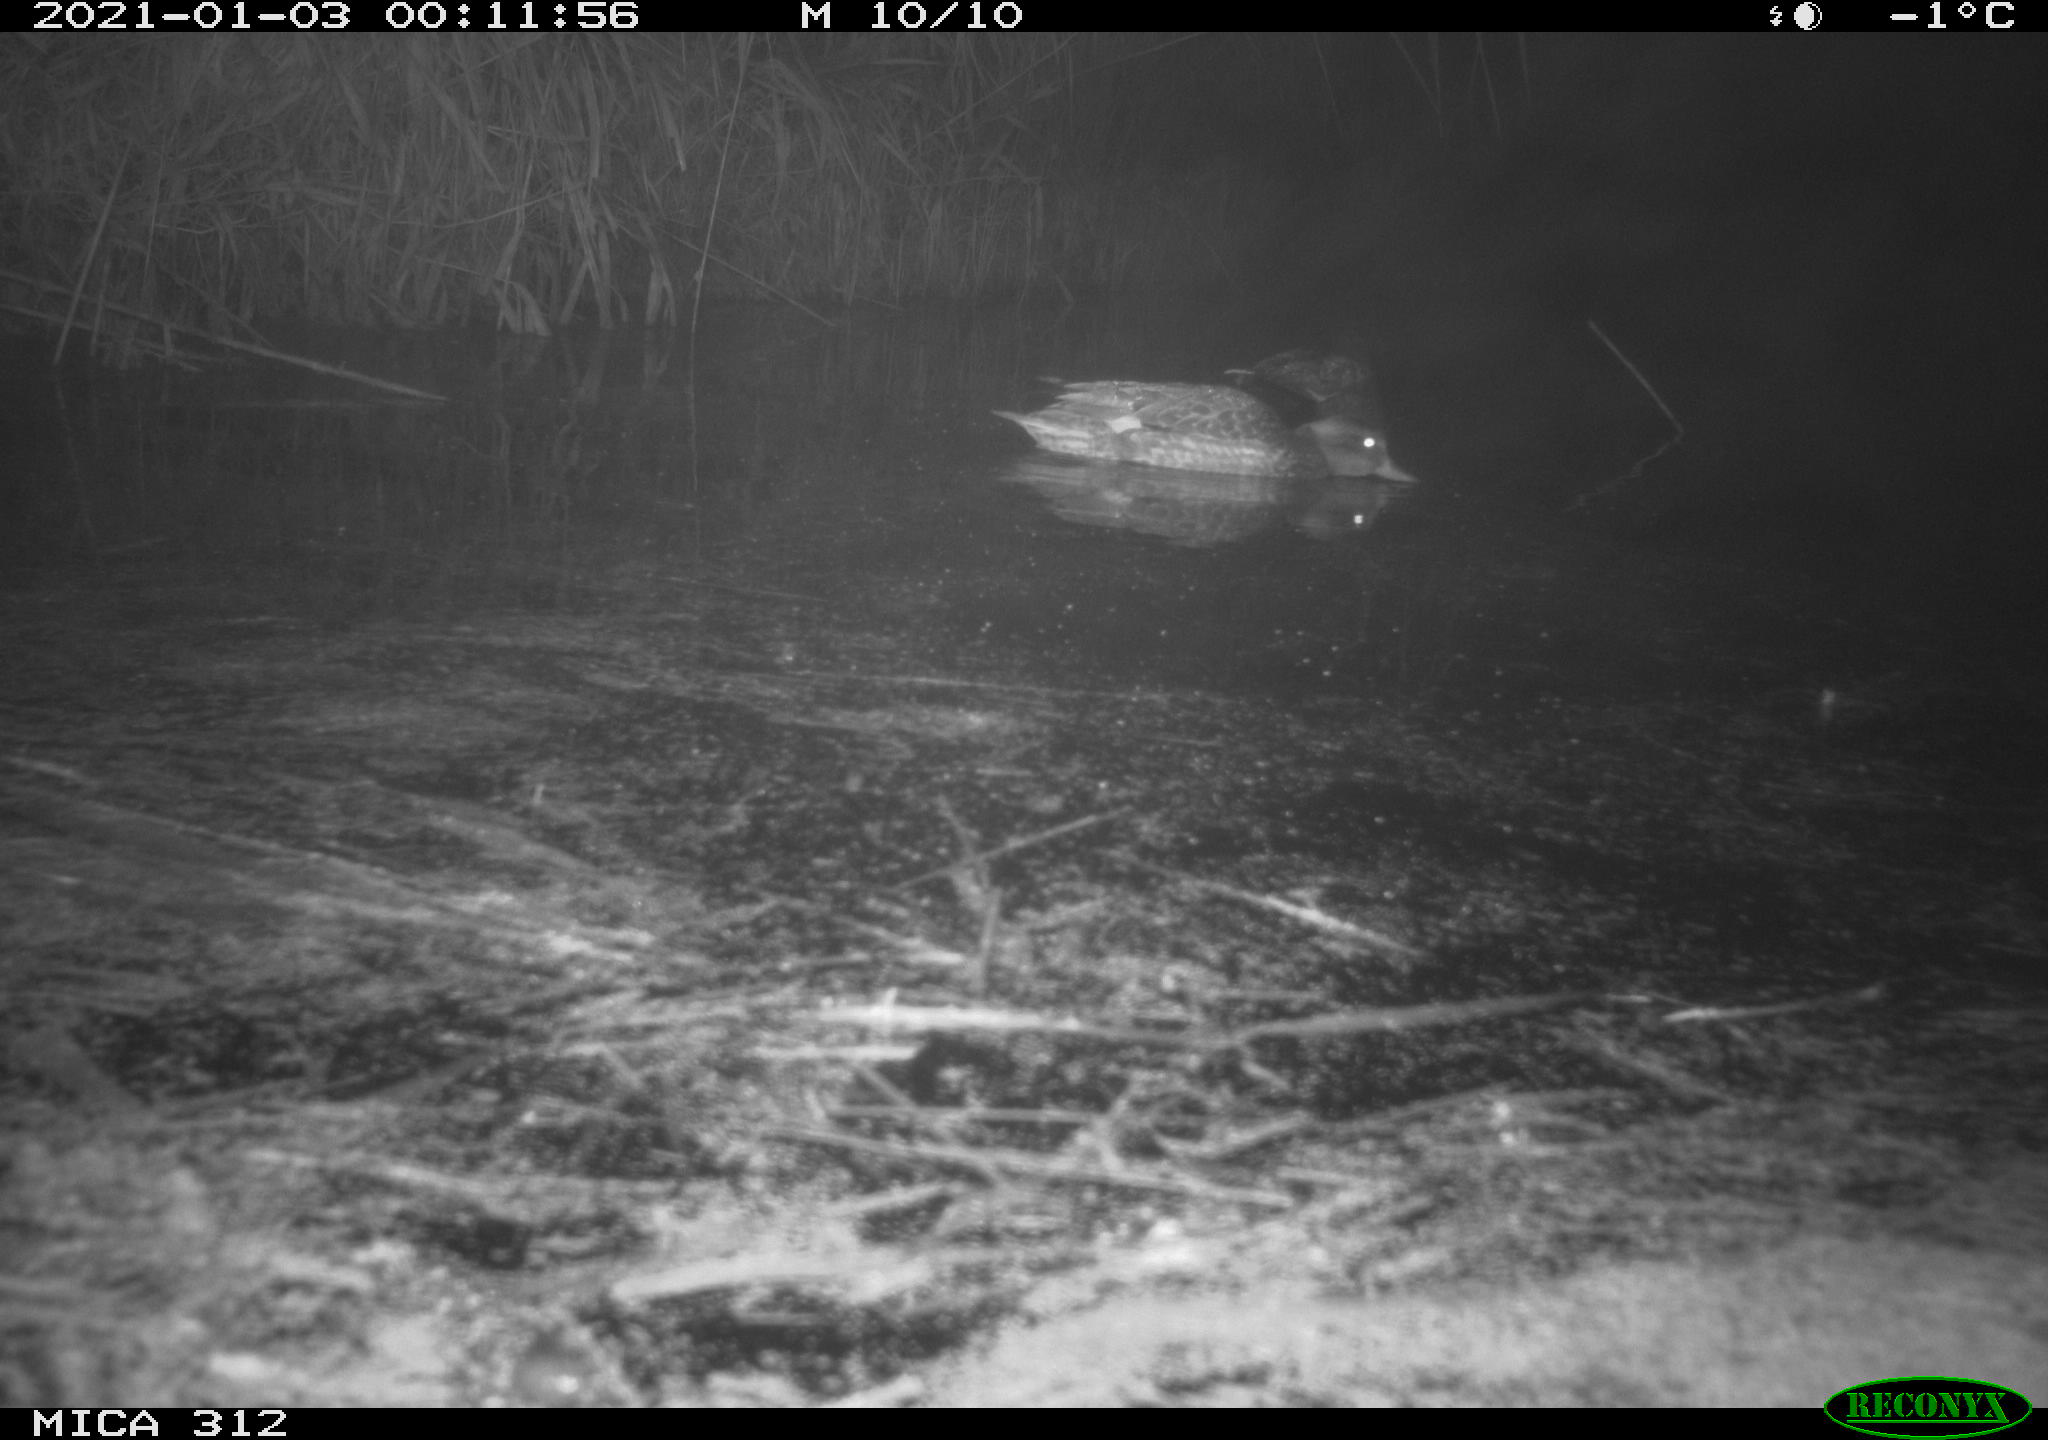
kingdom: Animalia
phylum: Chordata
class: Aves
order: Anseriformes
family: Anatidae
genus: Mareca
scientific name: Mareca strepera
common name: Gadwall
